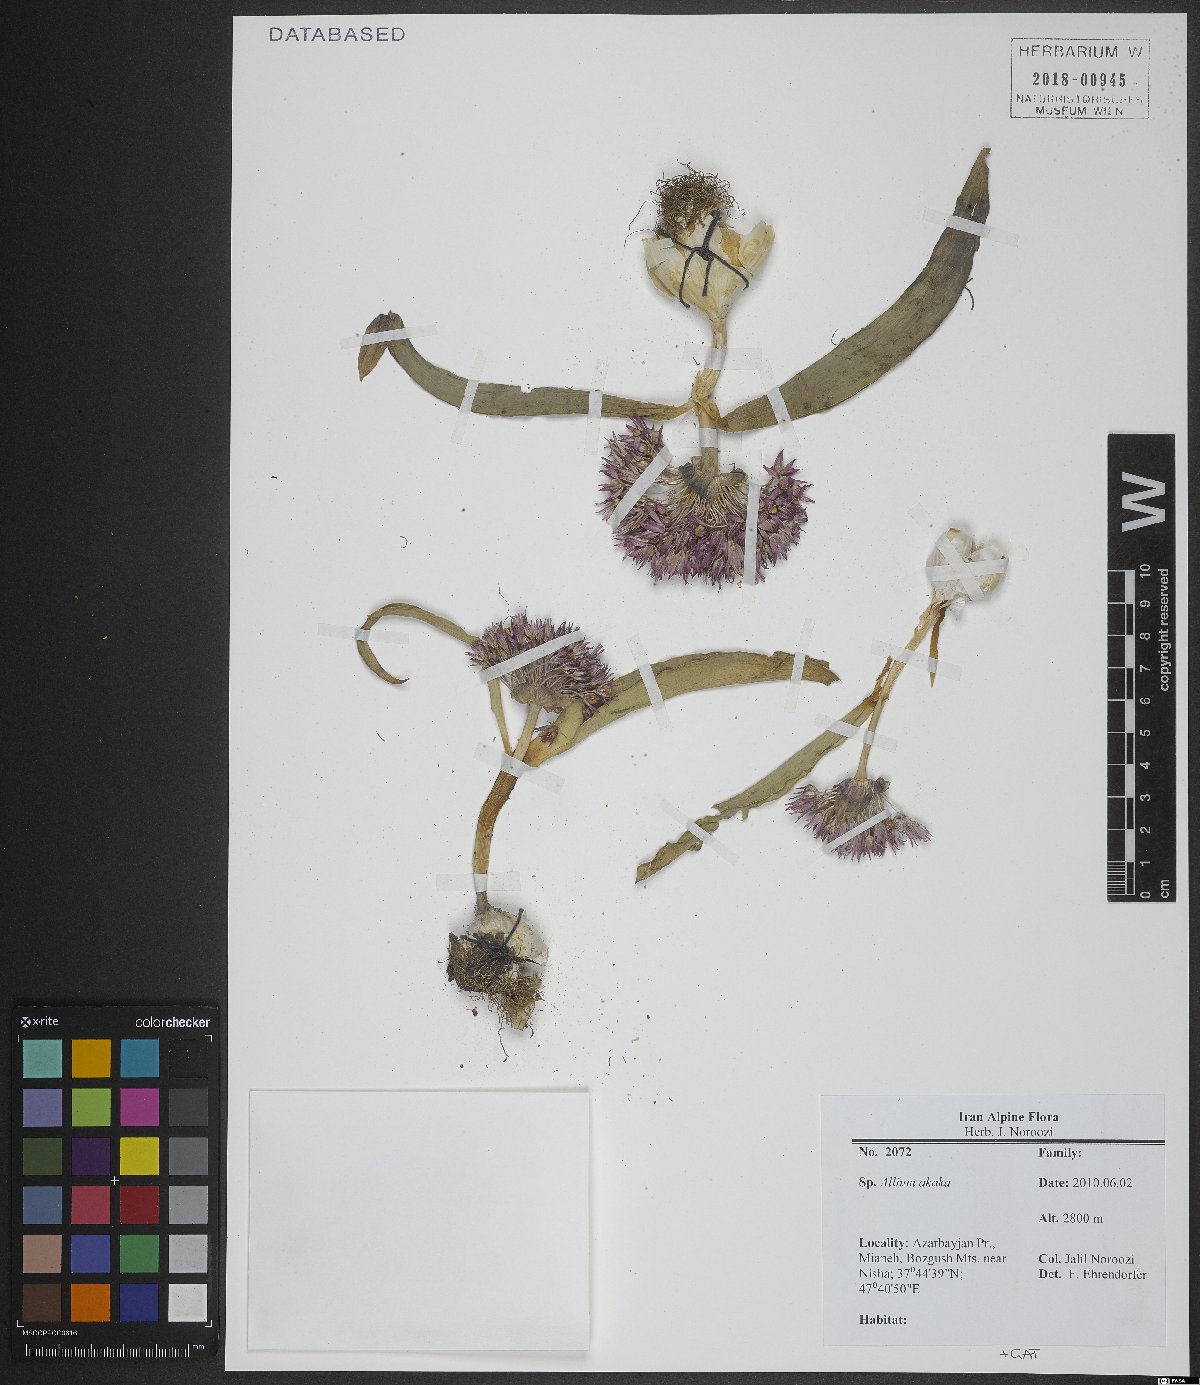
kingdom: Plantae
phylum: Tracheophyta
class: Liliopsida
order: Asparagales
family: Amaryllidaceae
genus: Allium
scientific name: Allium akaka
